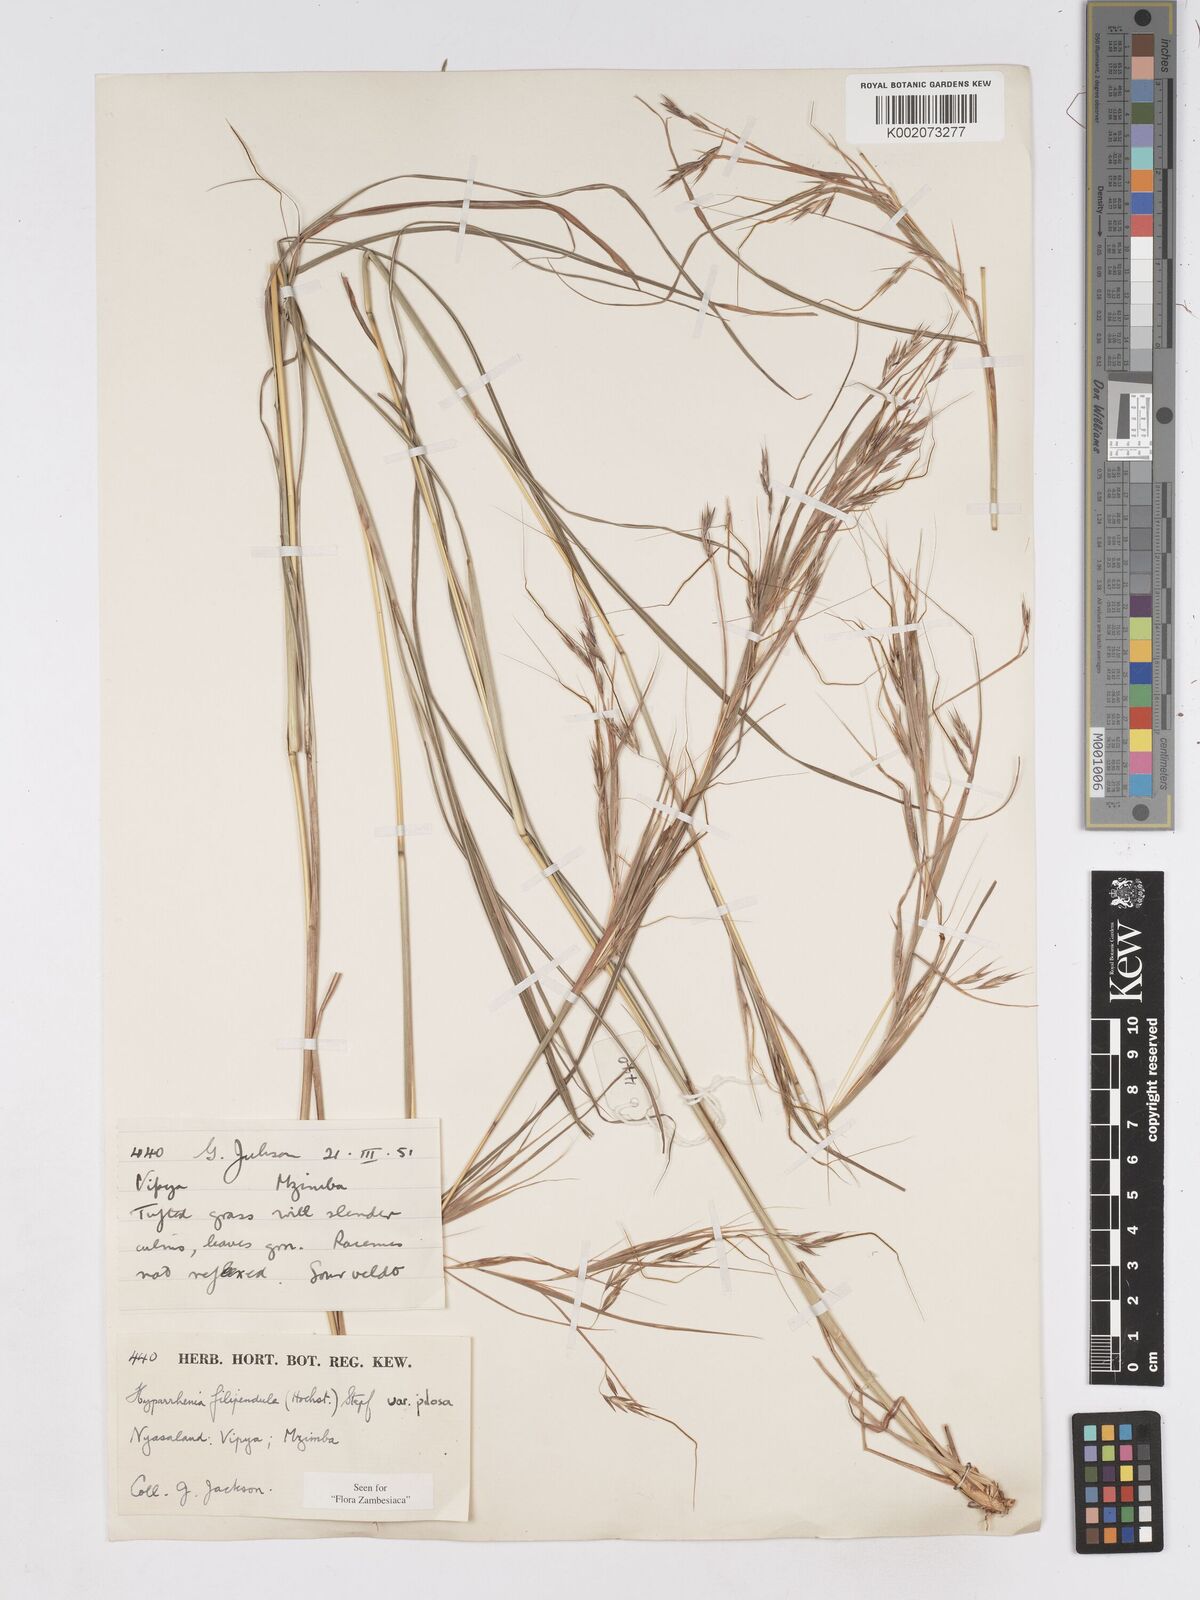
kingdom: Plantae
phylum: Tracheophyta
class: Liliopsida
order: Poales
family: Poaceae
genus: Hyparrhenia
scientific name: Hyparrhenia filipendula
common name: Tambookie grass
